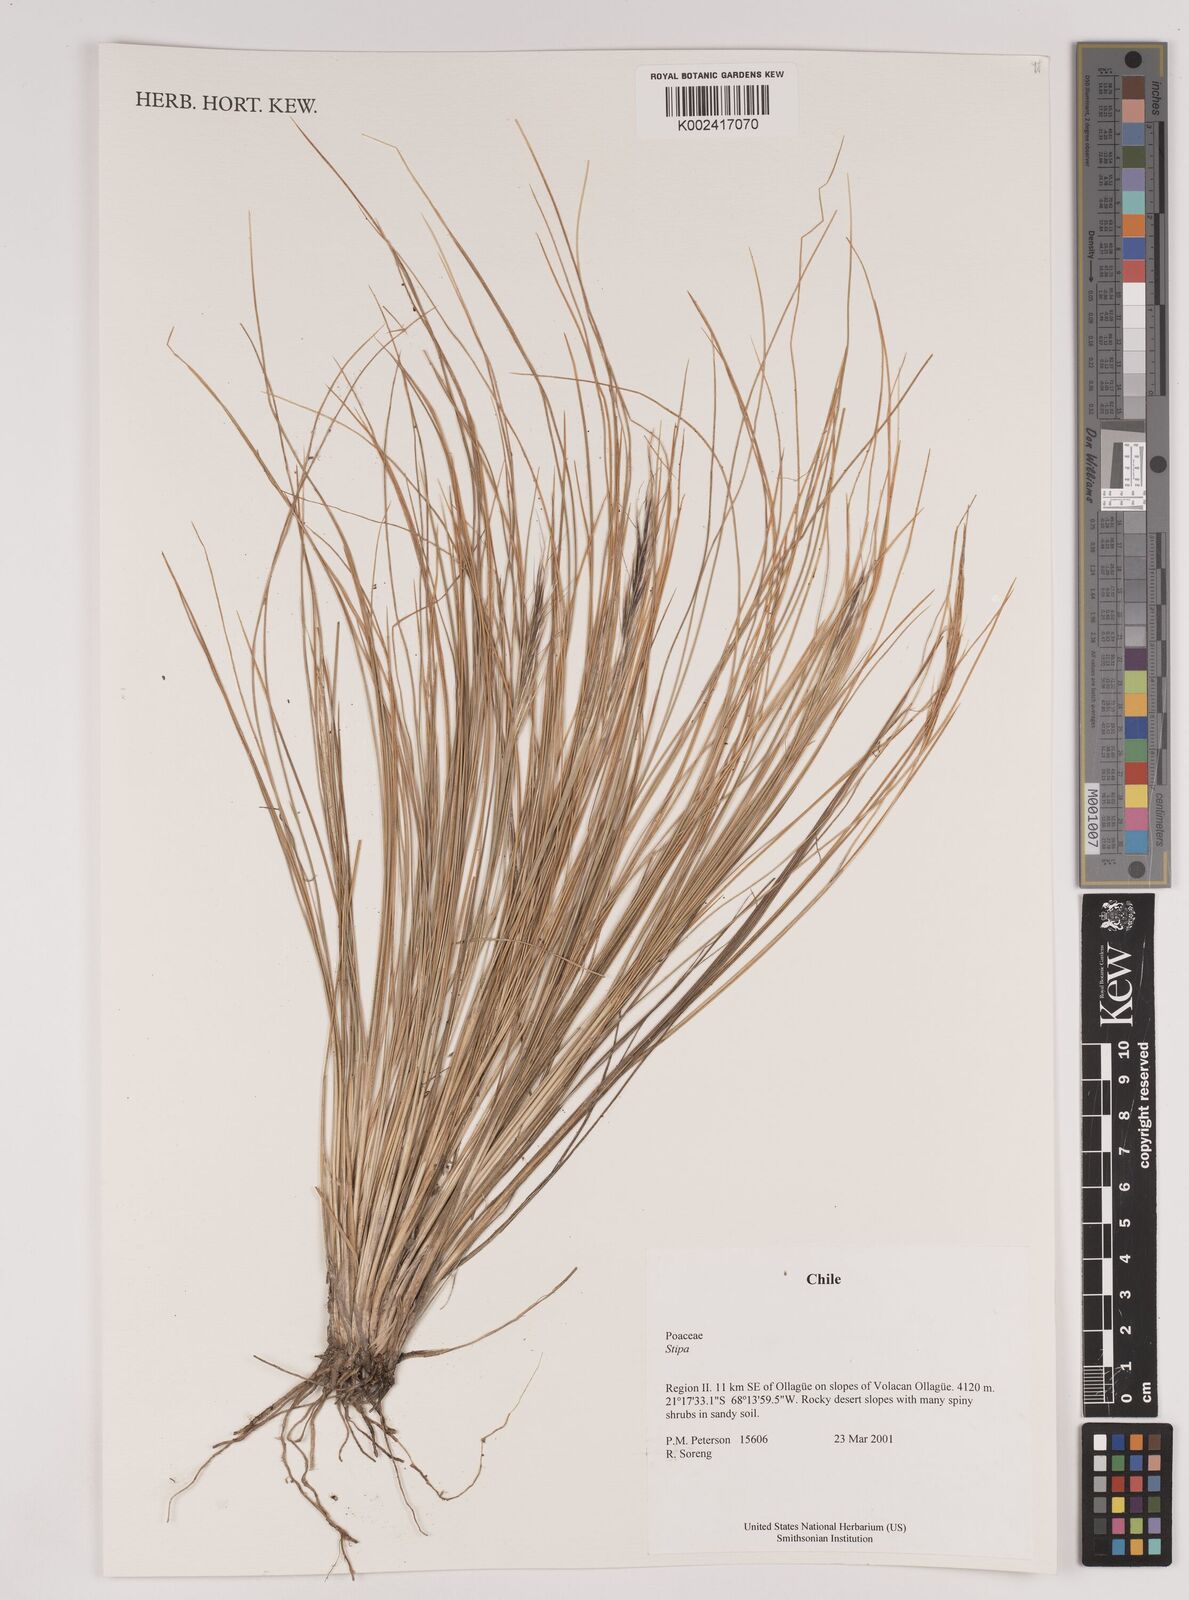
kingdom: Plantae
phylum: Tracheophyta
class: Liliopsida
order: Poales
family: Poaceae
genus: Pappostipa
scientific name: Pappostipa atacamensis
